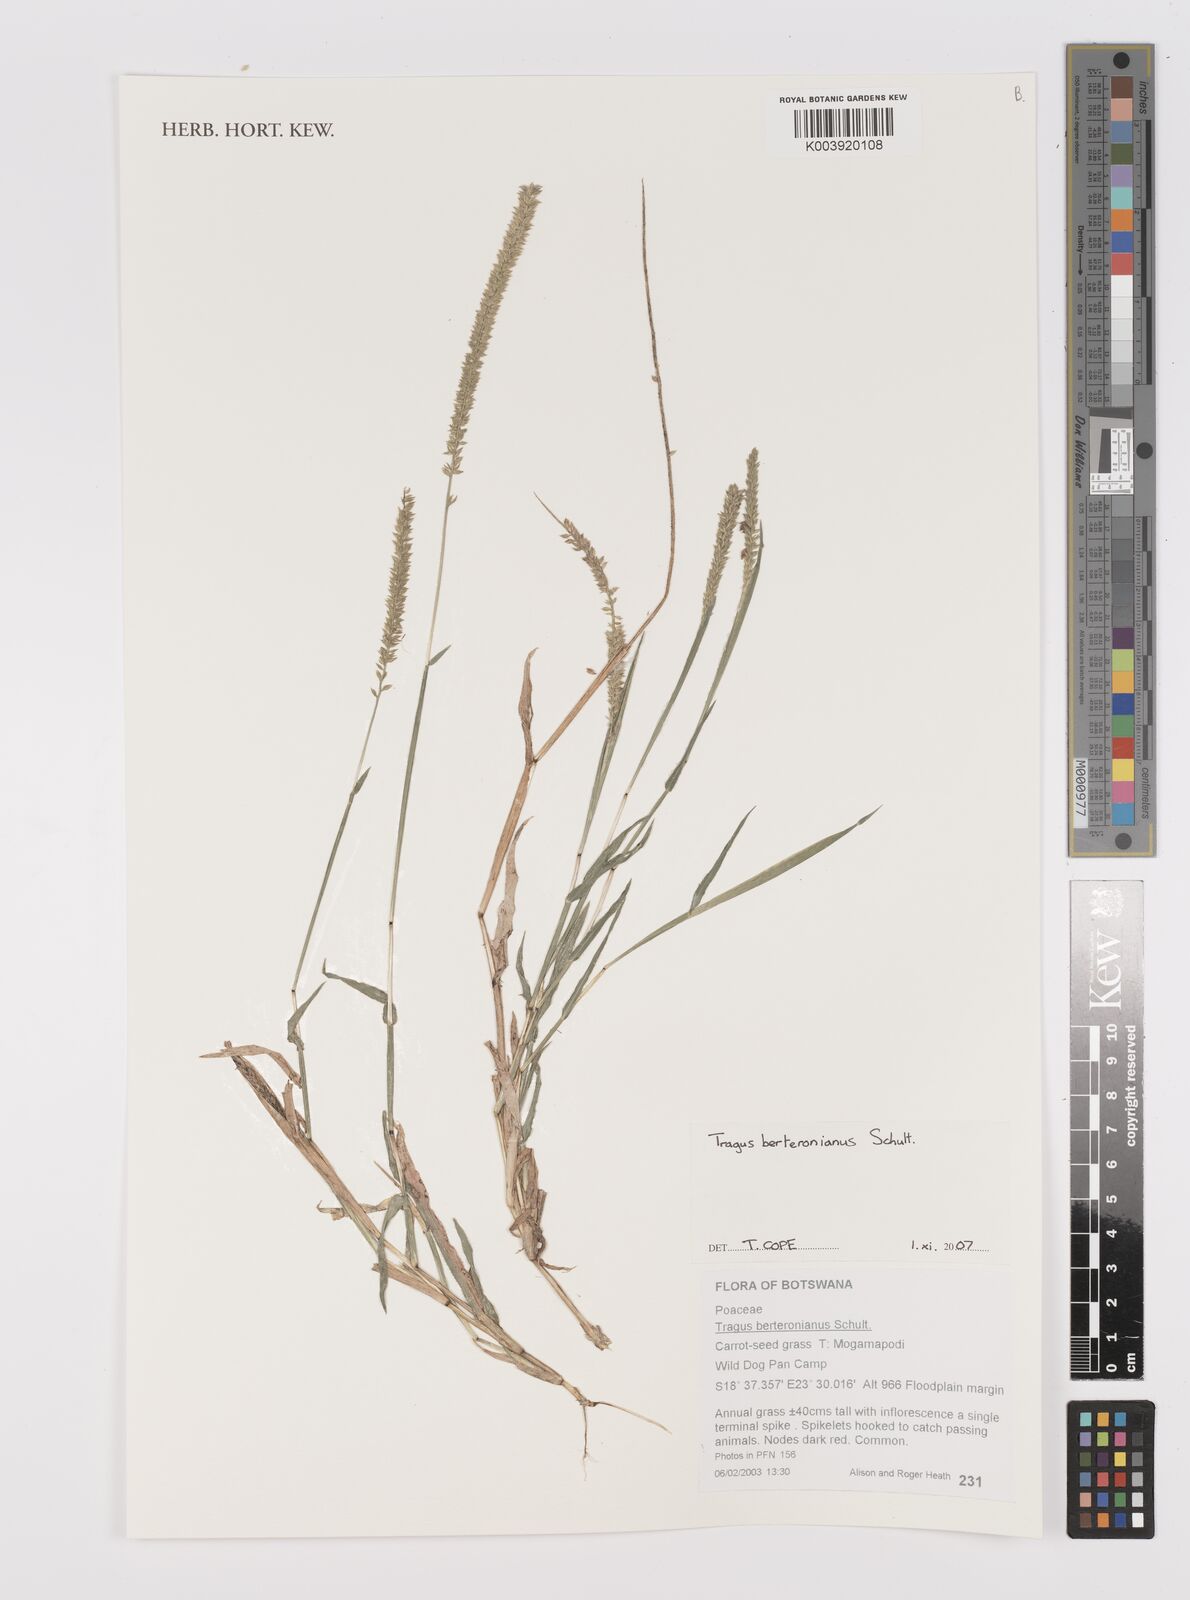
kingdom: Plantae
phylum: Tracheophyta
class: Liliopsida
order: Poales
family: Poaceae
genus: Tragus
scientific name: Tragus berteronianus
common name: African bur-grass
